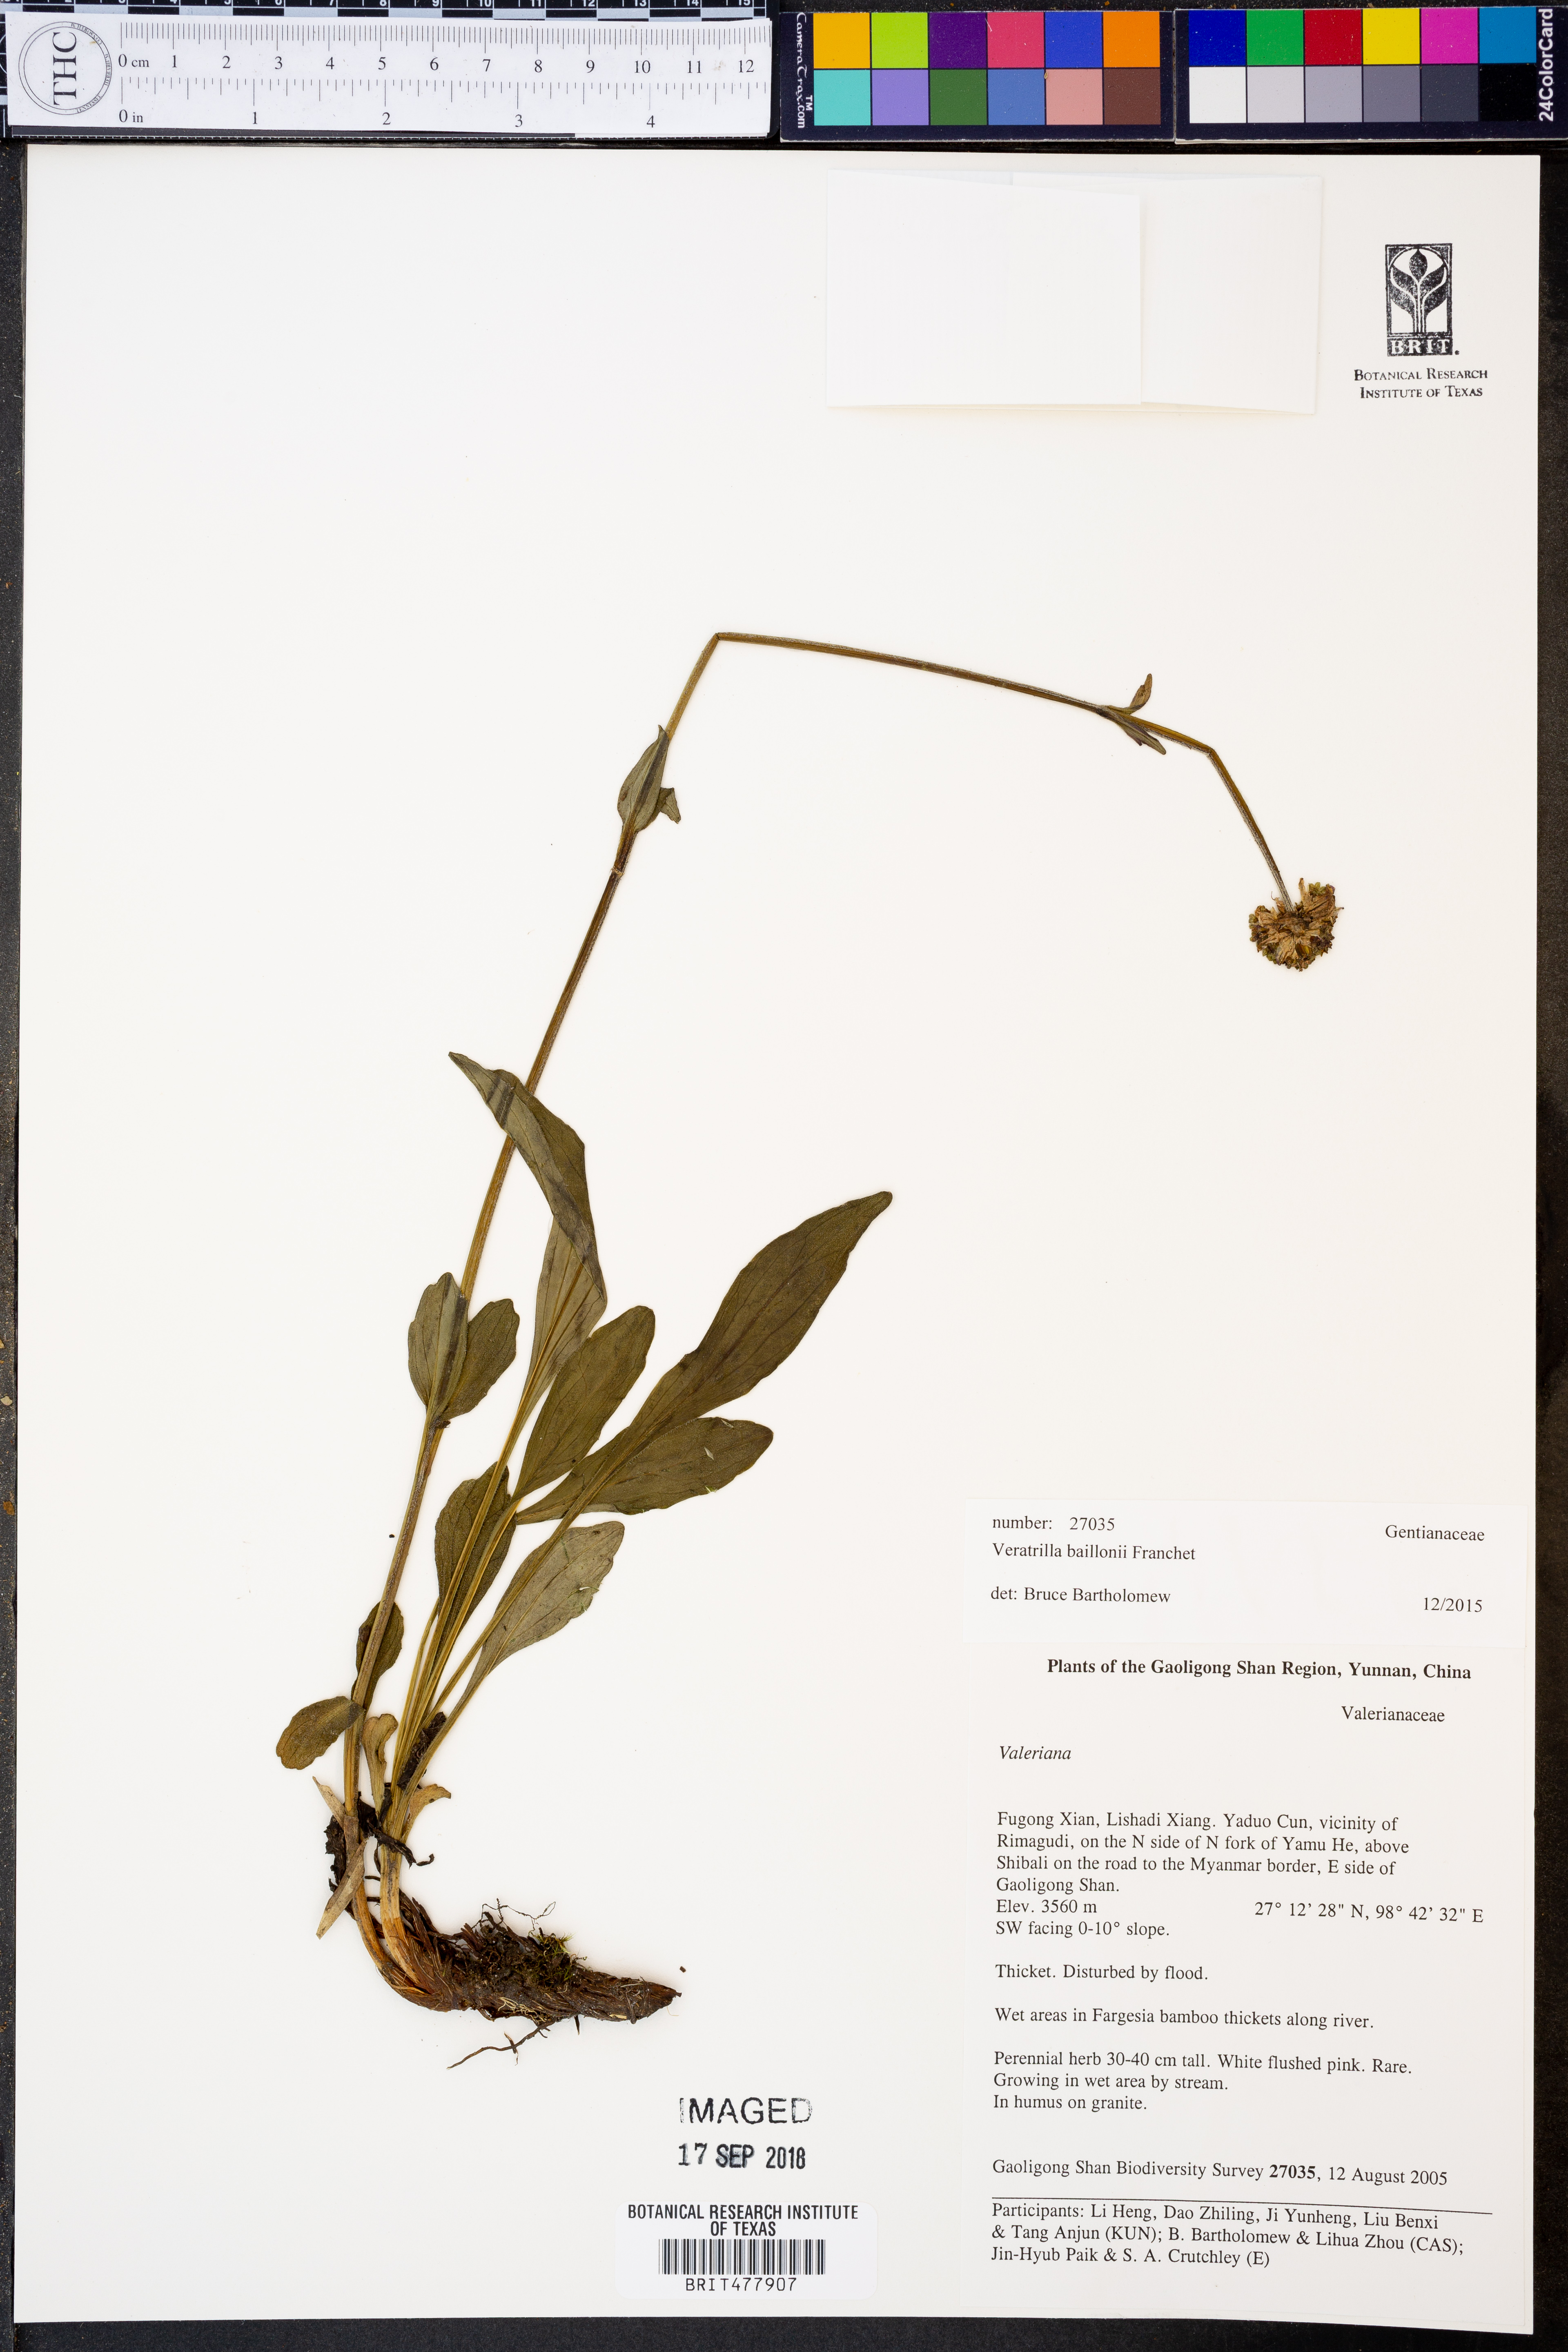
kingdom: Plantae
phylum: Tracheophyta
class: Magnoliopsida
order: Gentianales
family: Gentianaceae
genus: Veratrilla
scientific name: Veratrilla baillonii
